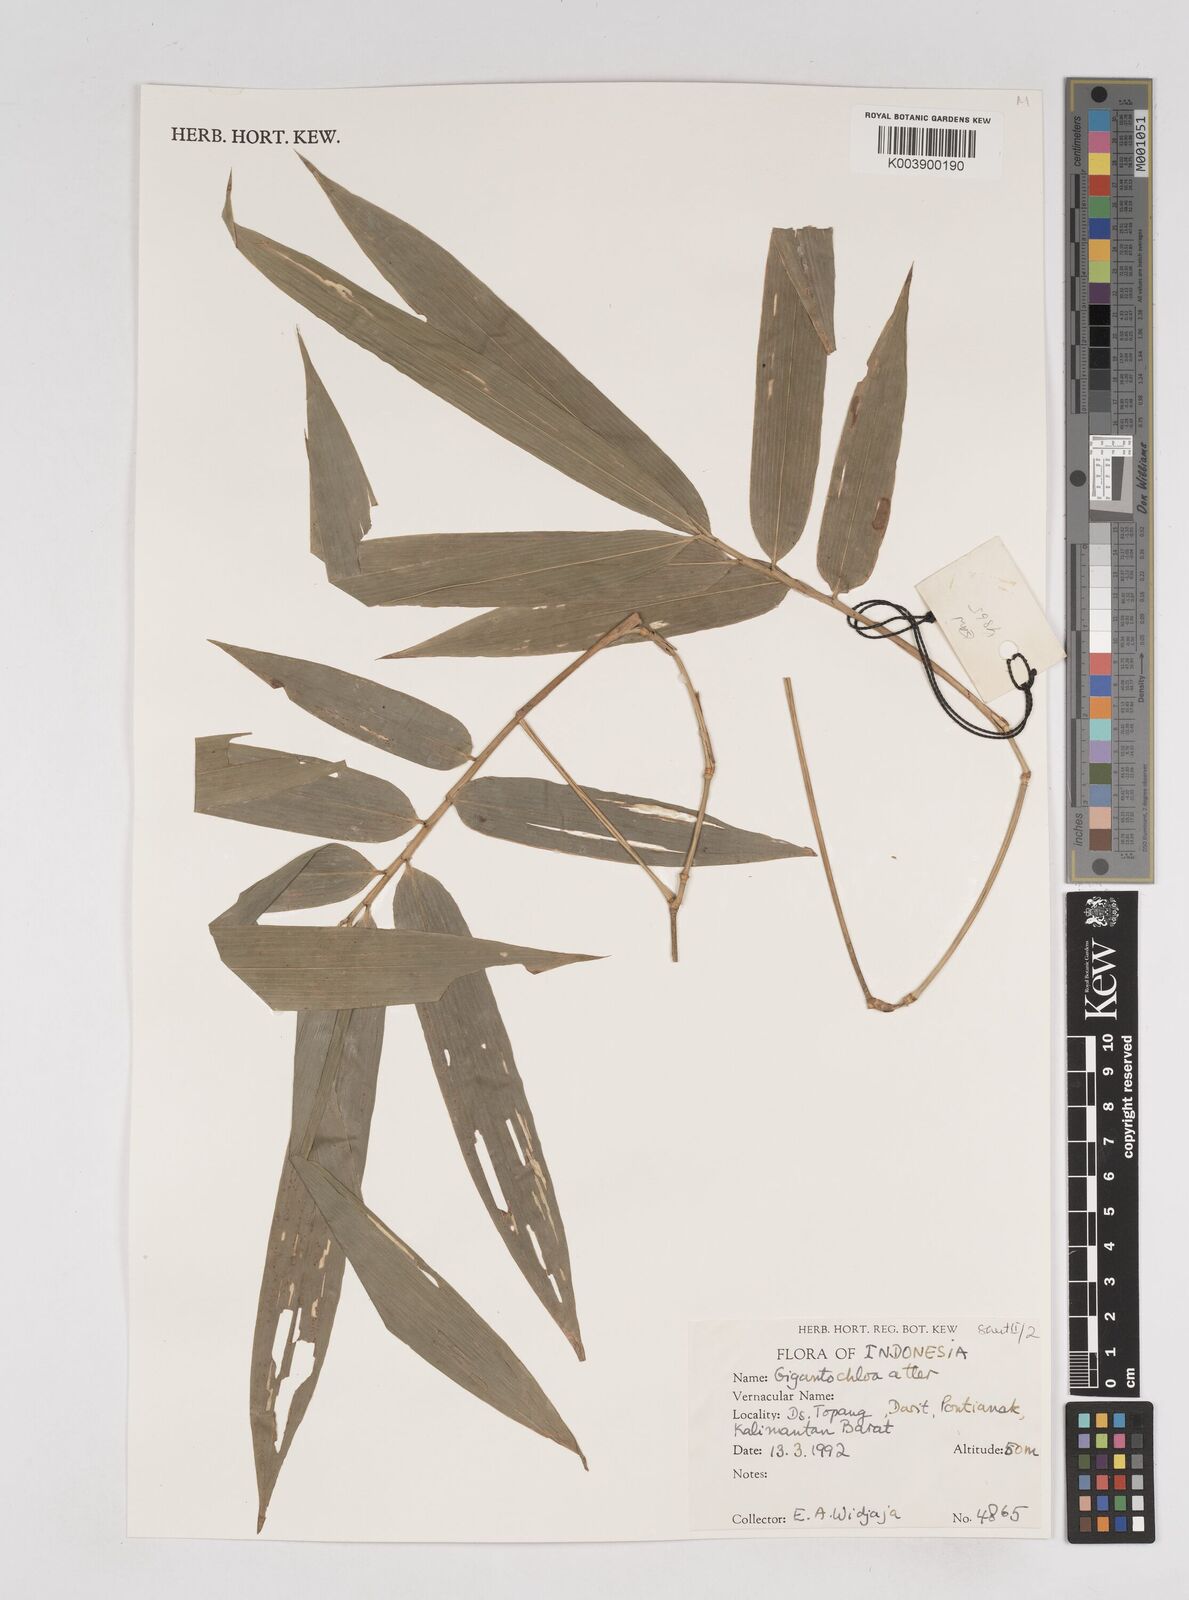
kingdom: Plantae
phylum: Tracheophyta
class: Liliopsida
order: Poales
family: Poaceae
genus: Gigantochloa
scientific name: Gigantochloa atter
